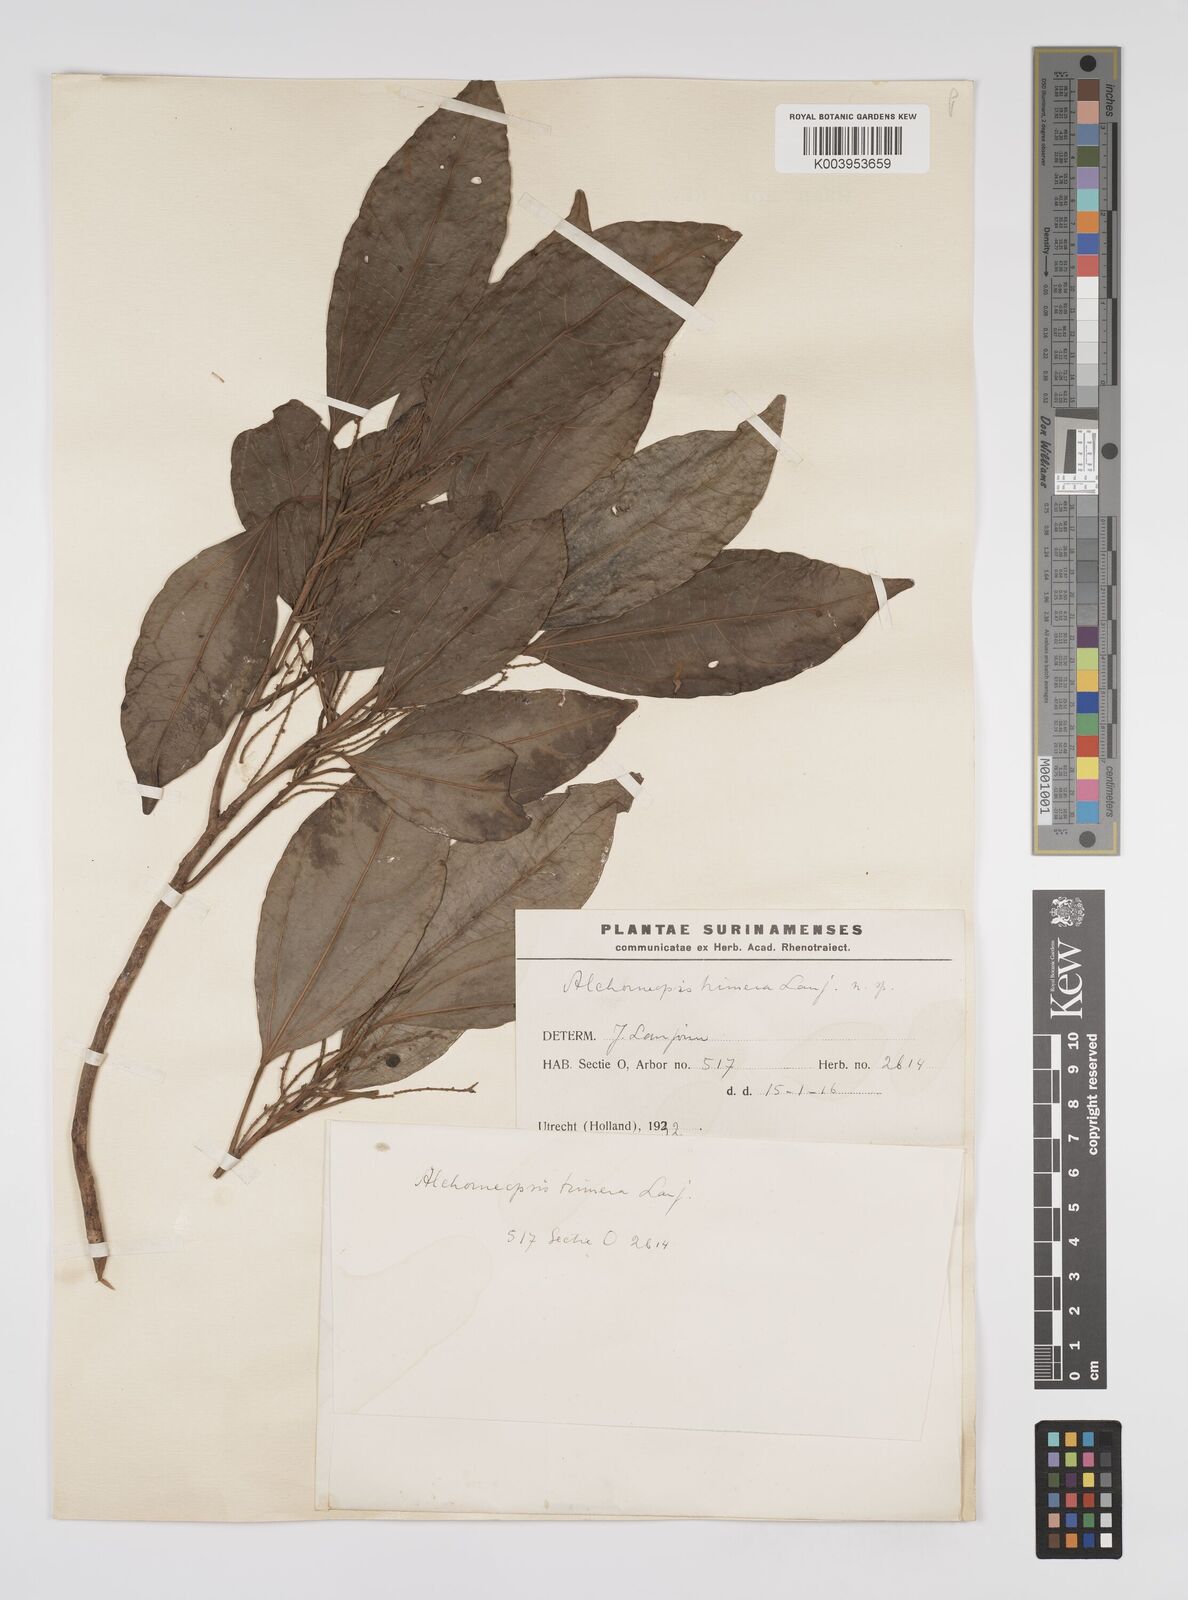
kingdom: Plantae
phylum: Tracheophyta
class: Magnoliopsida
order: Malpighiales
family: Euphorbiaceae
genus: Alchorneopsis
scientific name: Alchorneopsis floribunda
